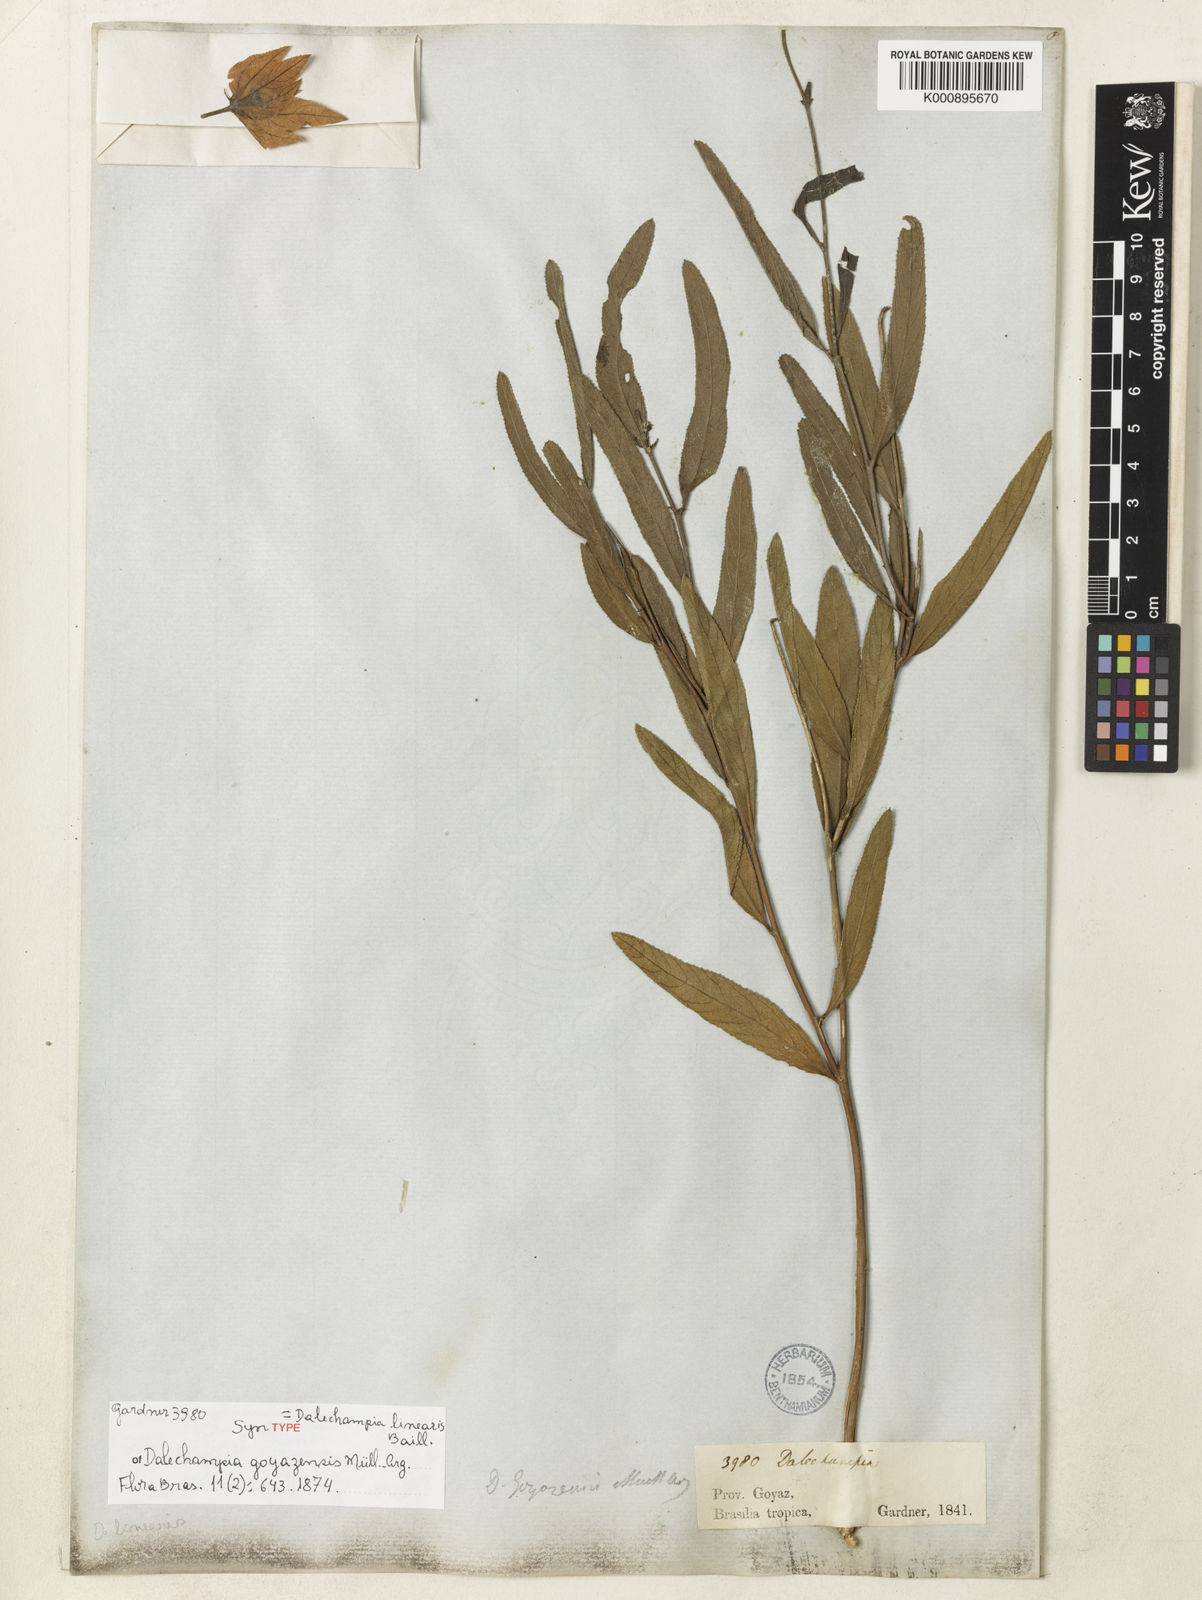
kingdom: Plantae
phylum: Tracheophyta
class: Magnoliopsida
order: Fabales
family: Fabaceae
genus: Muellera
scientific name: Muellera campestris
